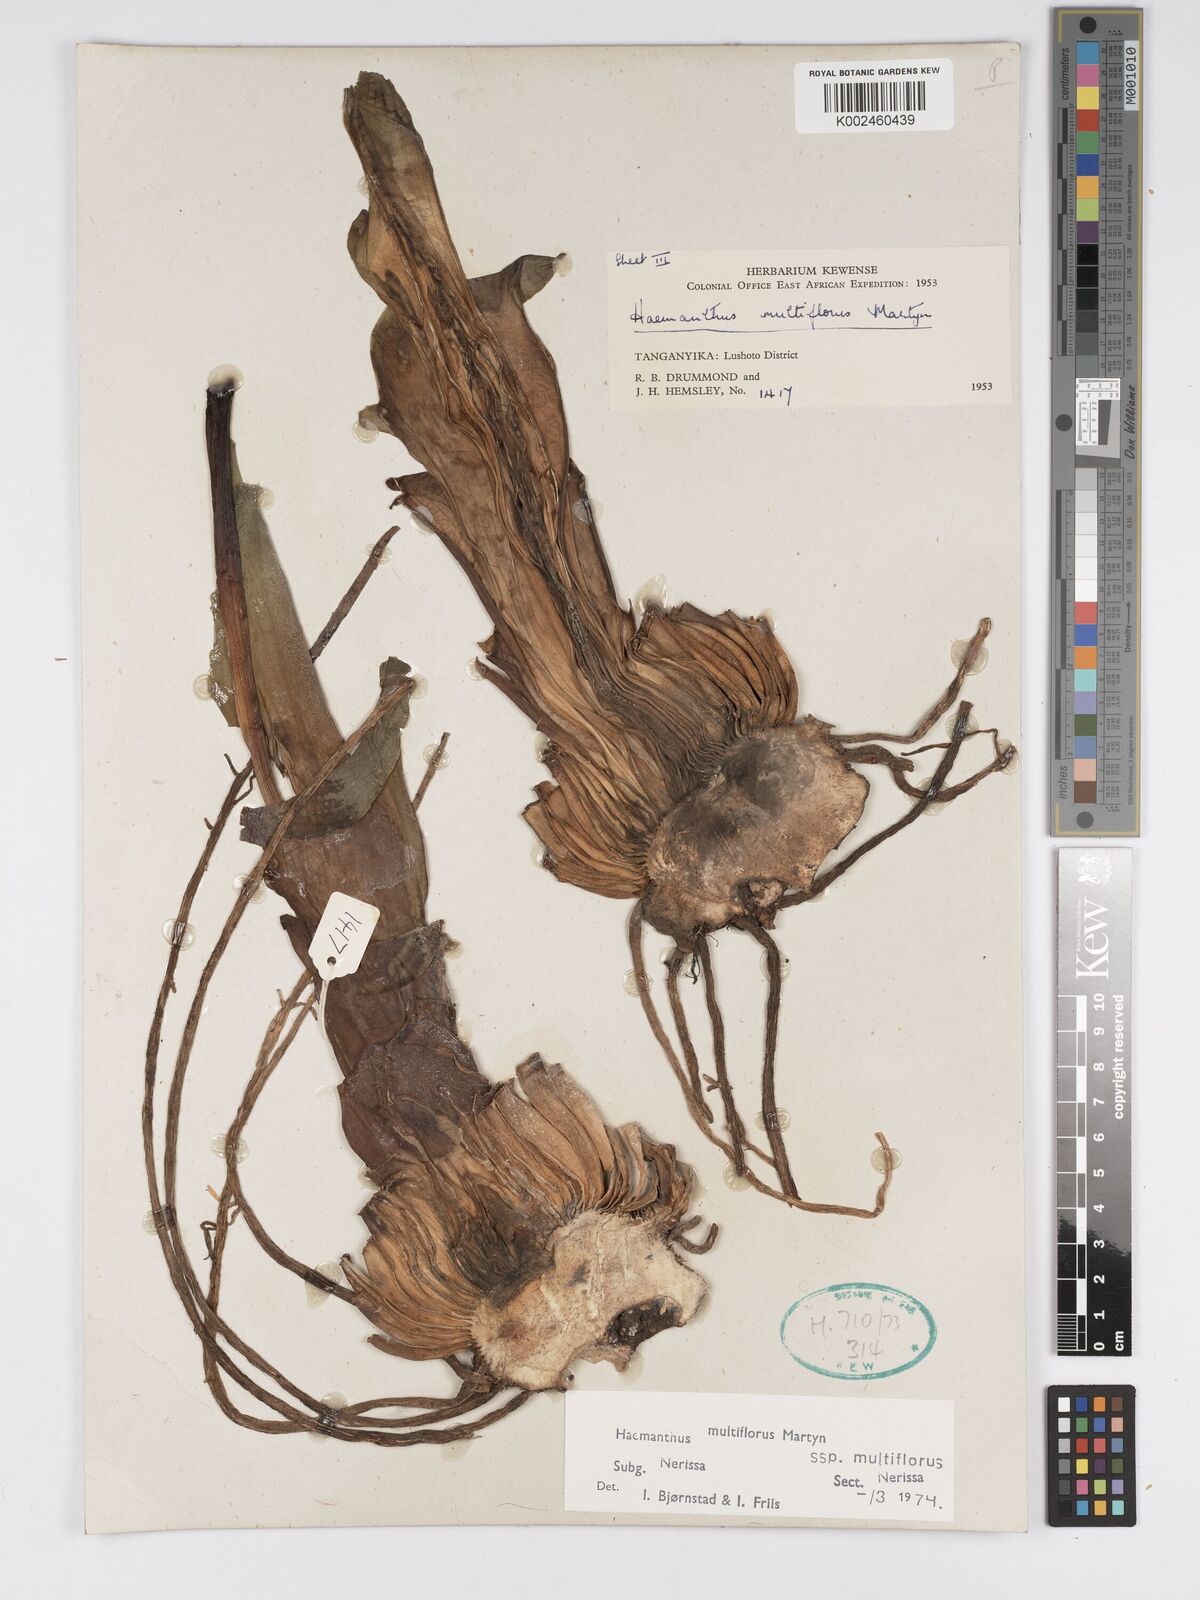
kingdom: Plantae
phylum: Tracheophyta
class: Liliopsida
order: Asparagales
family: Amaryllidaceae
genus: Scadoxus
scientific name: Scadoxus multiflorus
